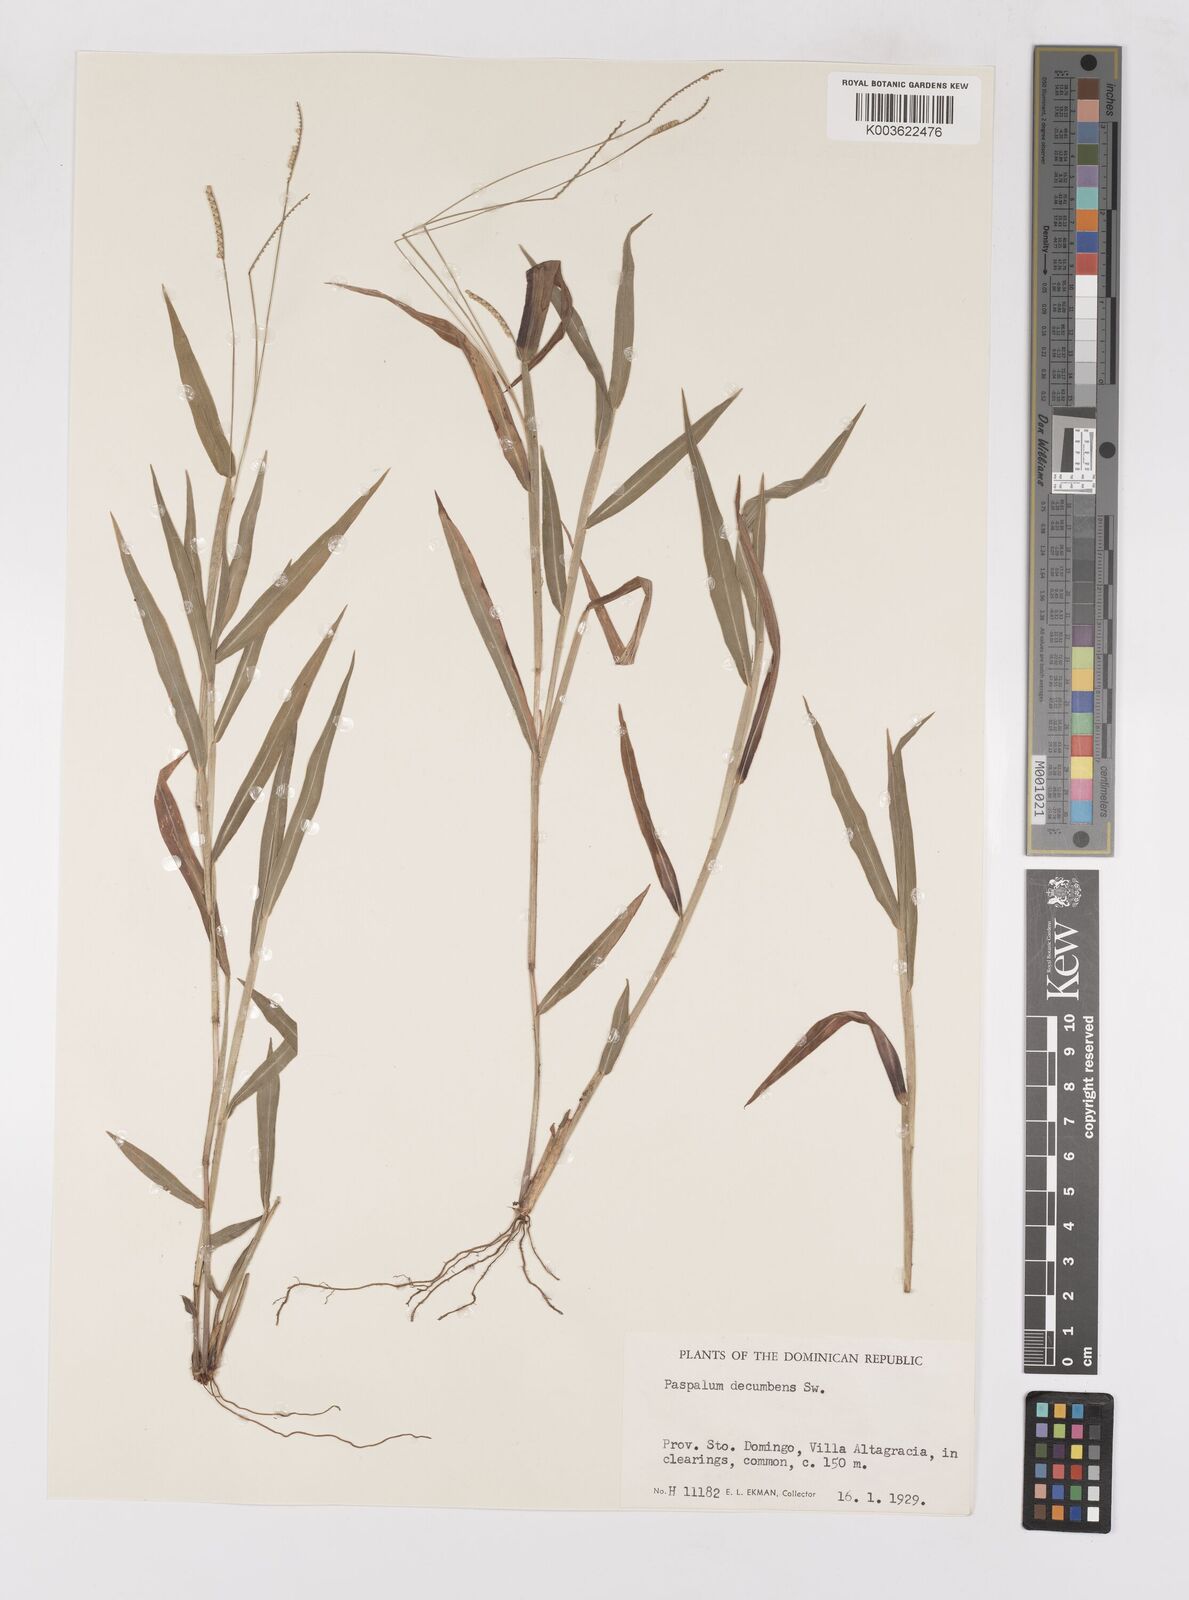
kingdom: Plantae
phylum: Tracheophyta
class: Liliopsida
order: Poales
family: Poaceae
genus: Paspalum
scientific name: Paspalum decumbens
